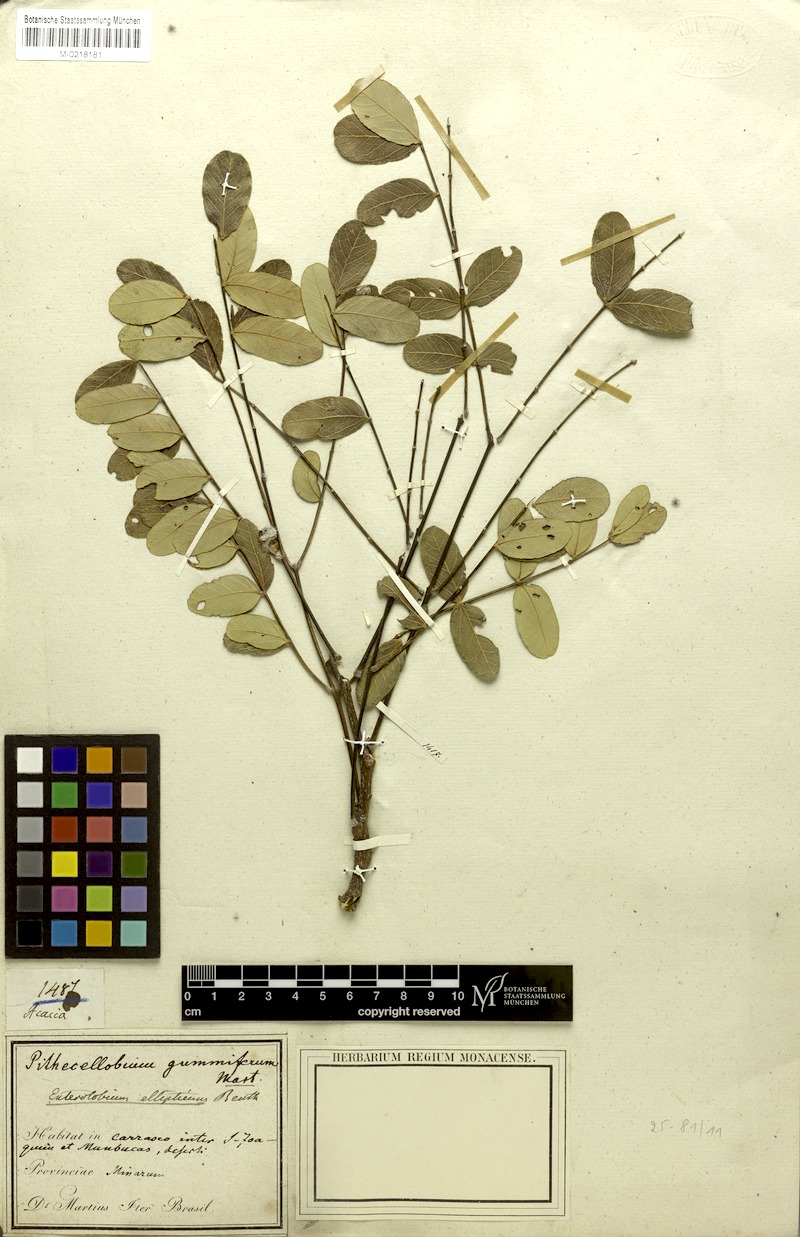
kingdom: Plantae
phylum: Tracheophyta
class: Magnoliopsida
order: Fabales
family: Fabaceae
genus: Enterolobium
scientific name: Enterolobium gummiferum
